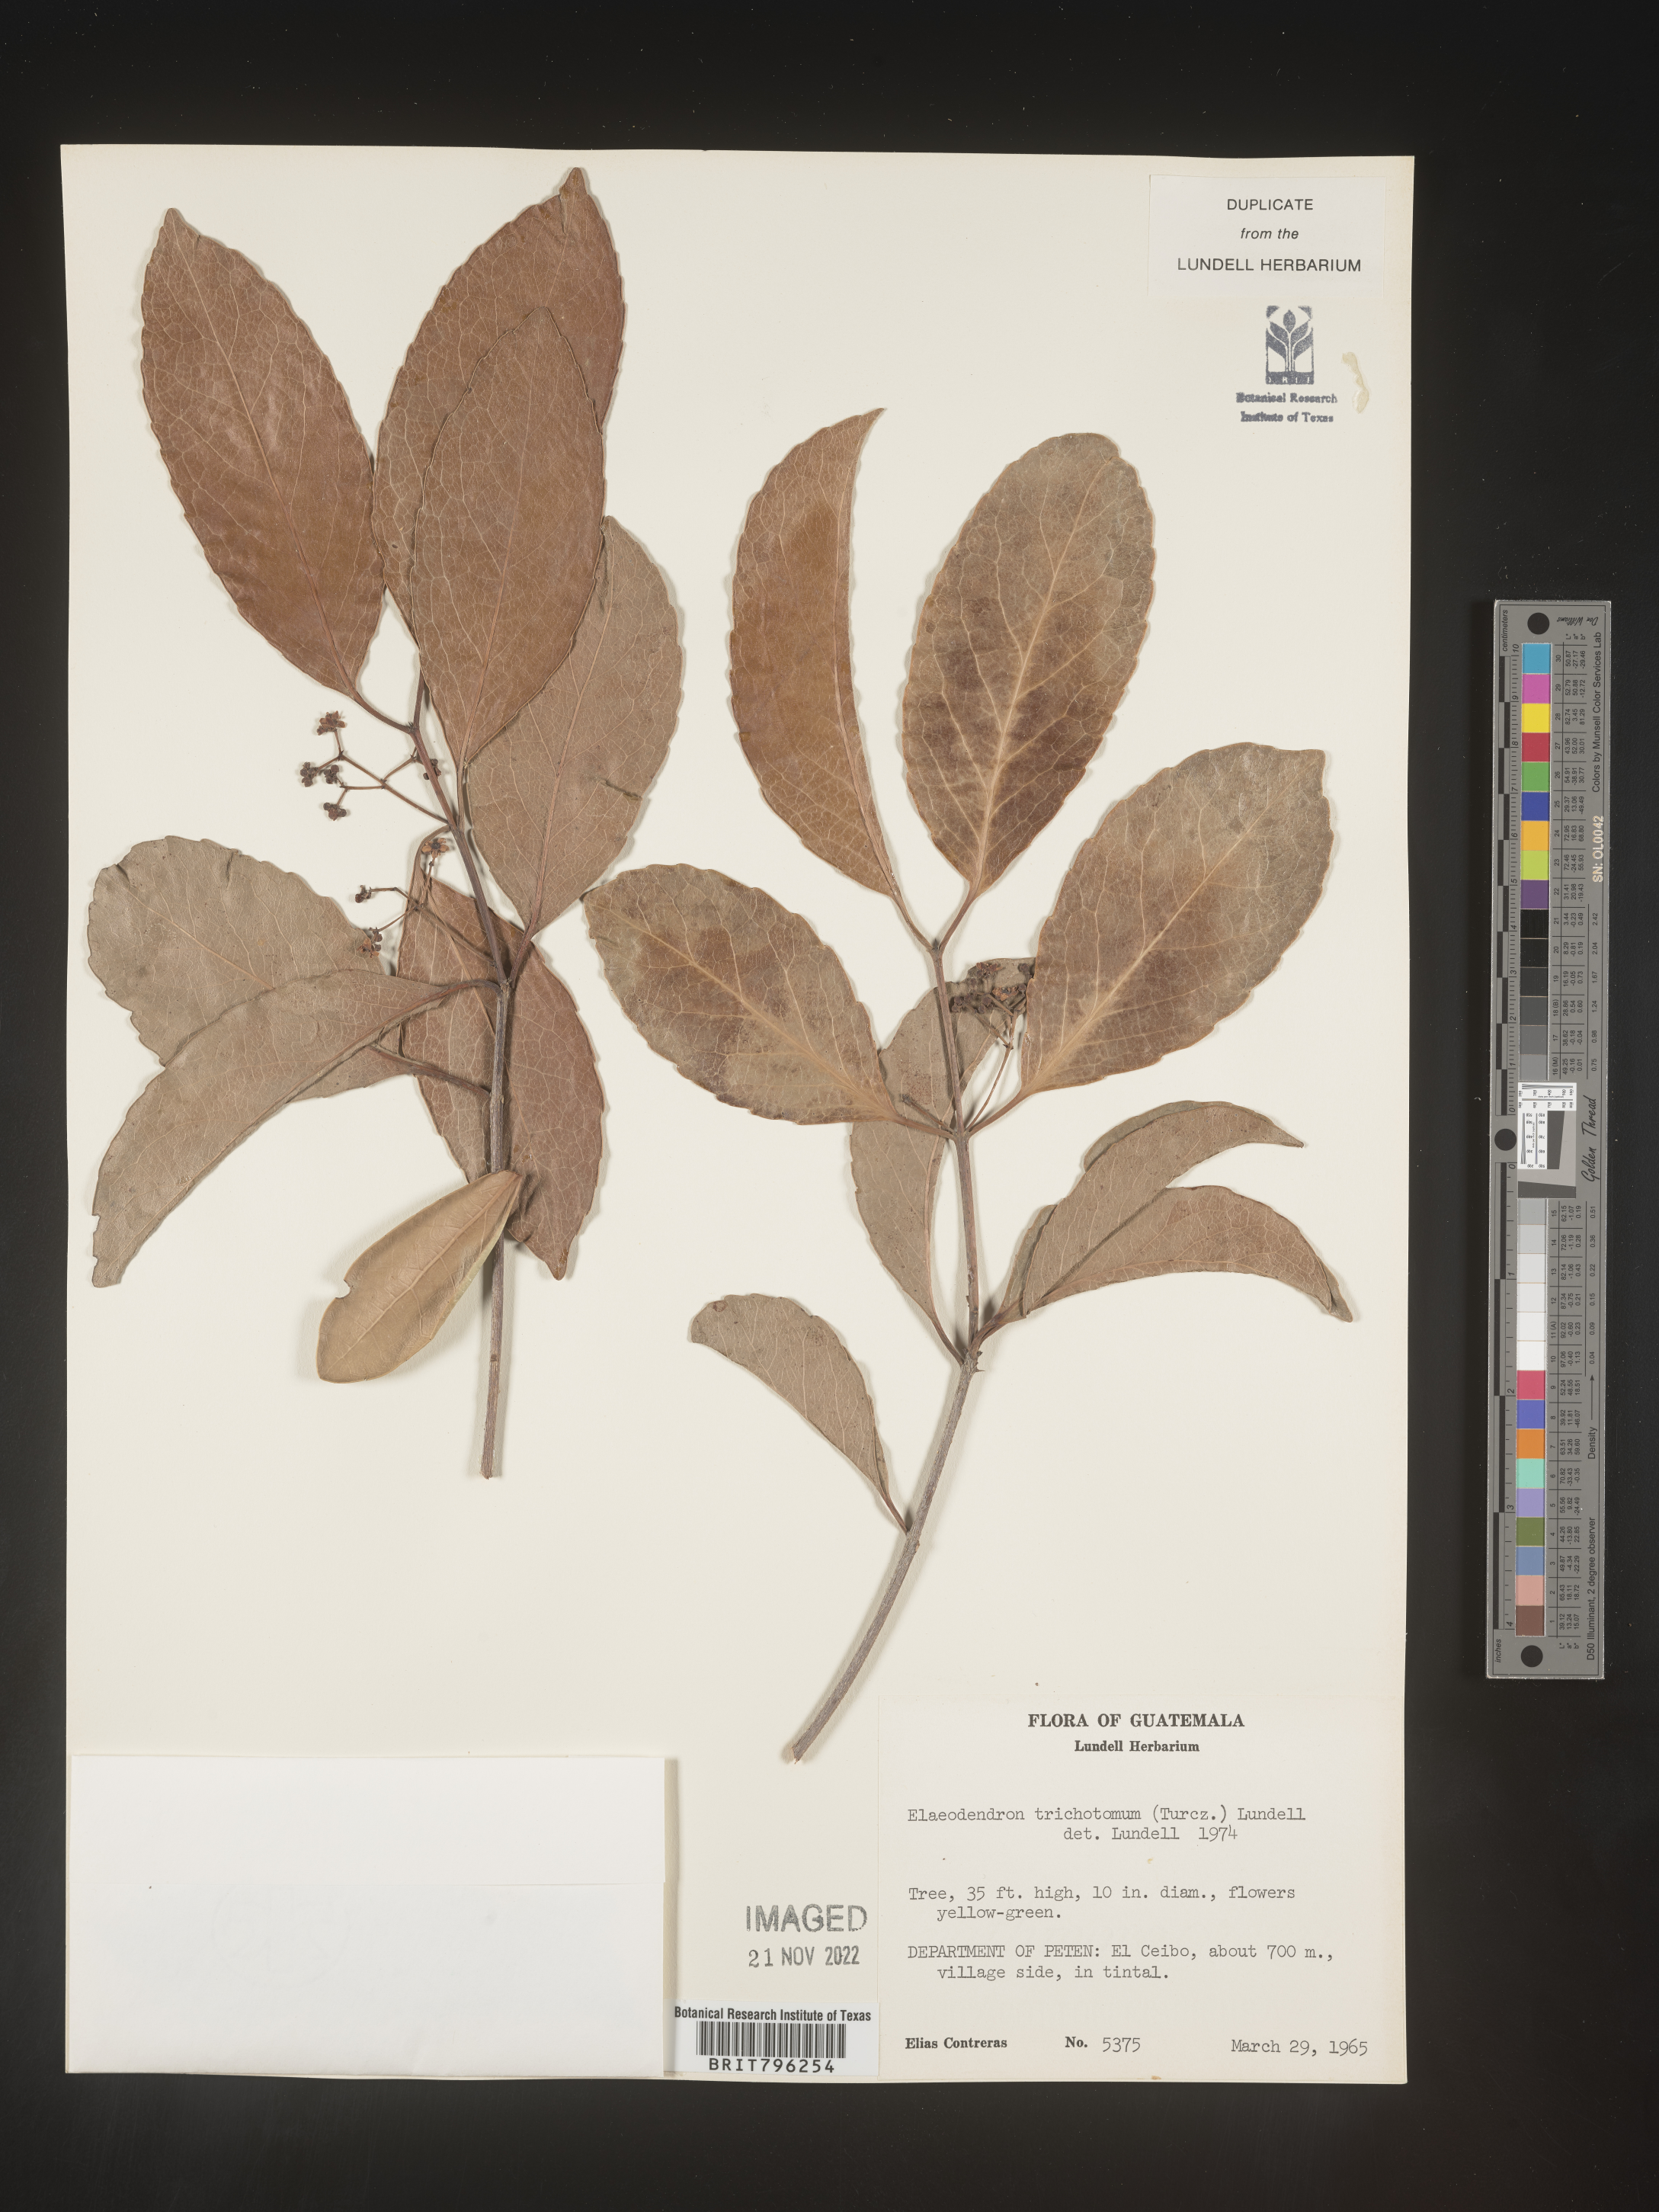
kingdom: Plantae
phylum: Tracheophyta
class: Magnoliopsida
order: Celastrales
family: Celastraceae
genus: Elaeodendron
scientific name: Elaeodendron
